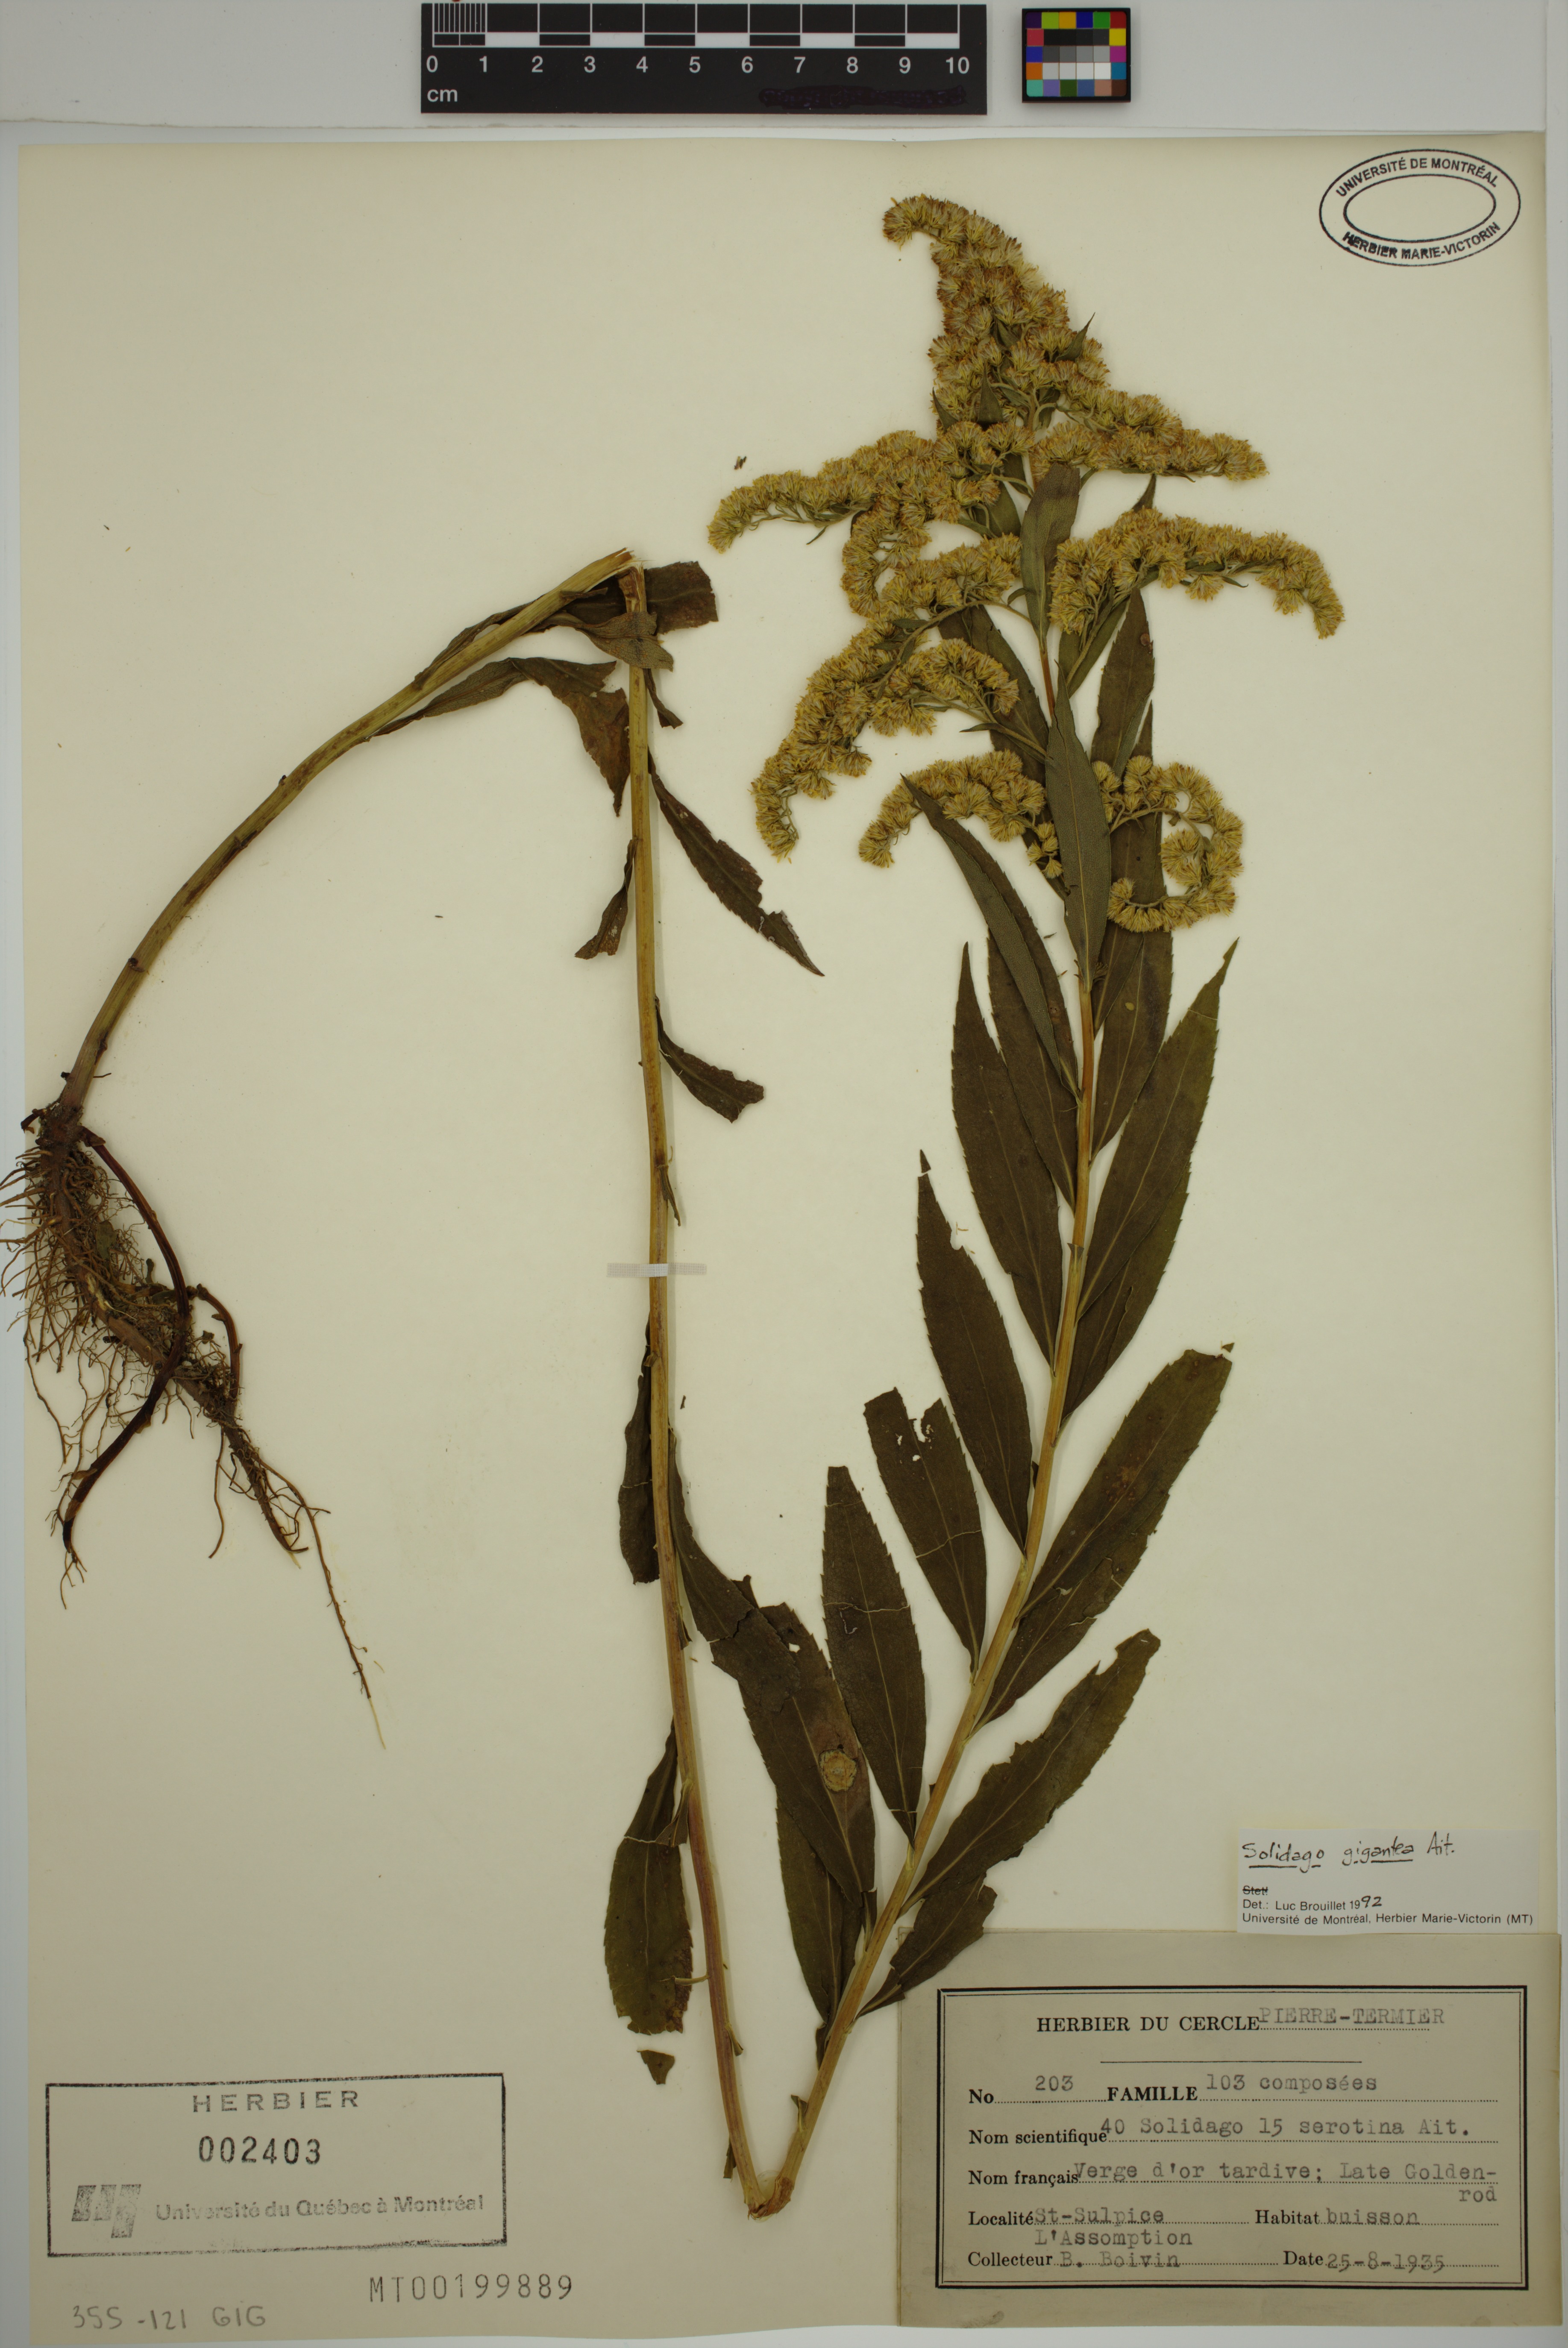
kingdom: Plantae
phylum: Tracheophyta
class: Magnoliopsida
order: Asterales
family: Asteraceae
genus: Solidago
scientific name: Solidago gigantea
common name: Giant goldenrod
